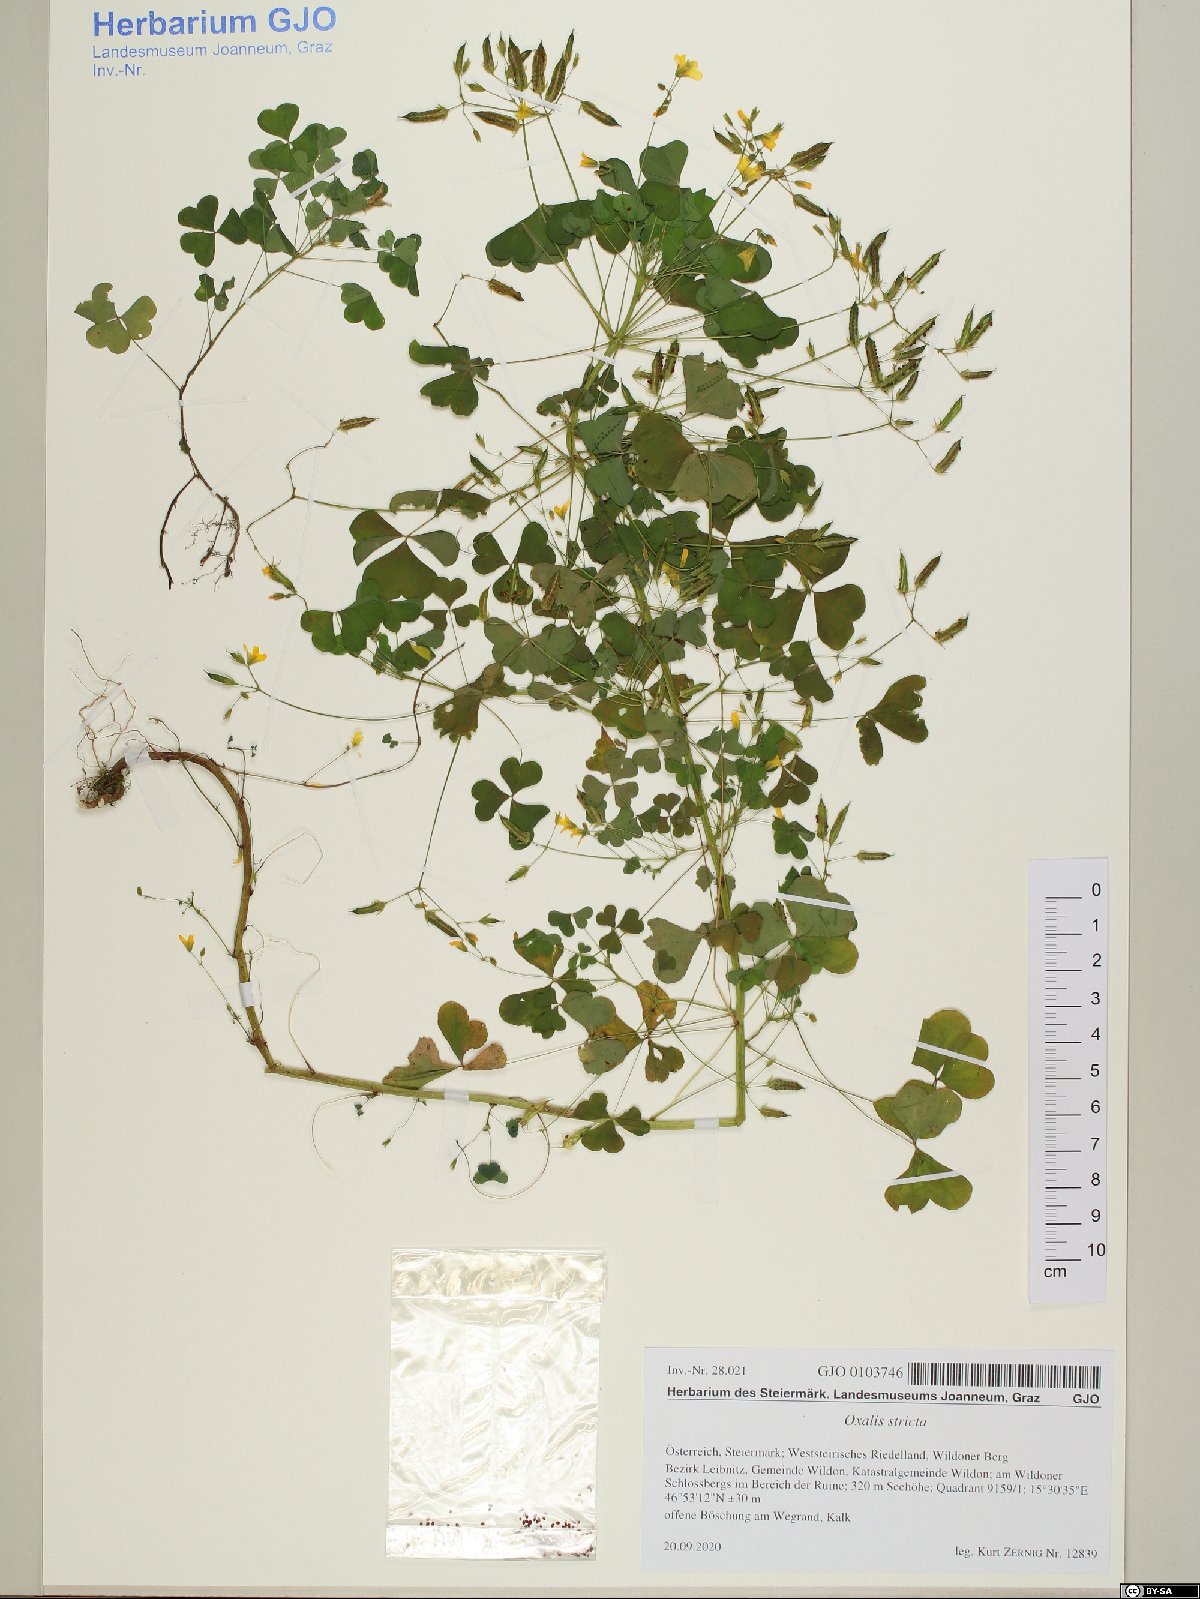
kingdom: Plantae
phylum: Tracheophyta
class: Magnoliopsida
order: Oxalidales
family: Oxalidaceae
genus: Oxalis
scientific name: Oxalis stricta
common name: Upright yellow-sorrel
